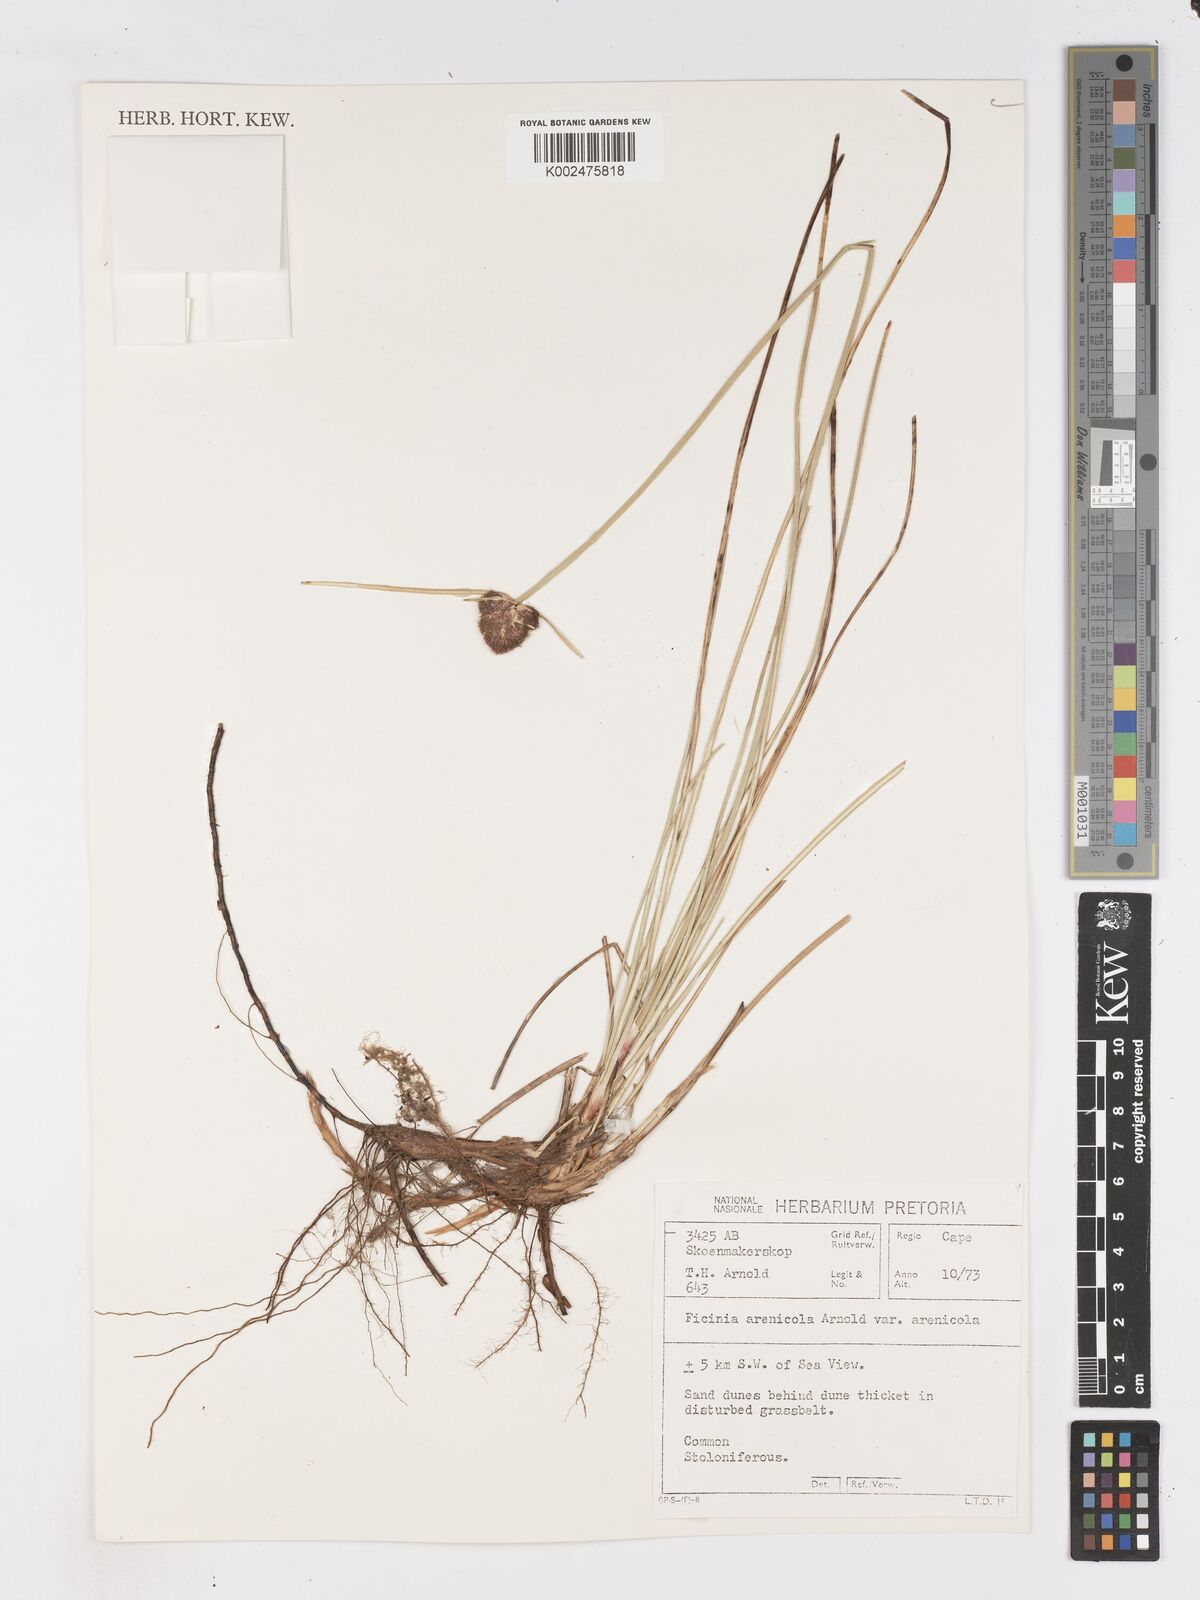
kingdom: Plantae
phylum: Tracheophyta
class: Liliopsida
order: Poales
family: Cyperaceae
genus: Ficinia
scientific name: Ficinia arenicola
